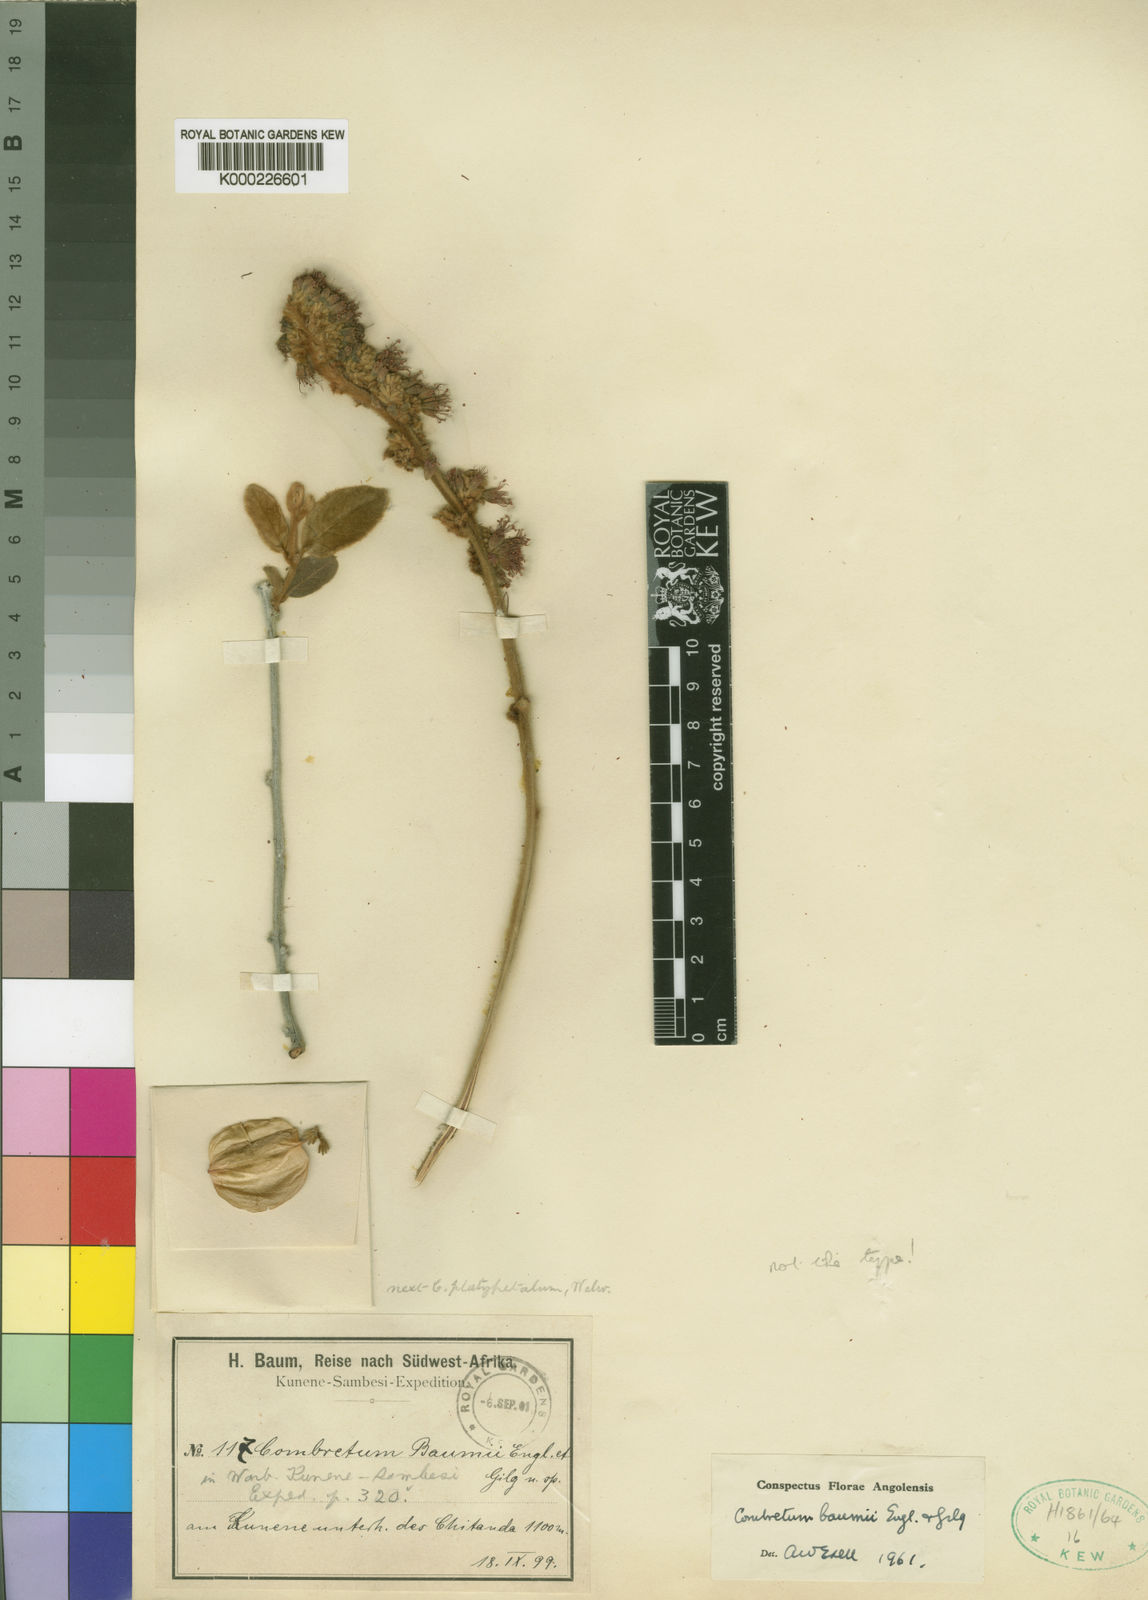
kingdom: Plantae
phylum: Tracheophyta
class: Magnoliopsida
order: Myrtales
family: Combretaceae
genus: Combretum
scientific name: Combretum baumii
